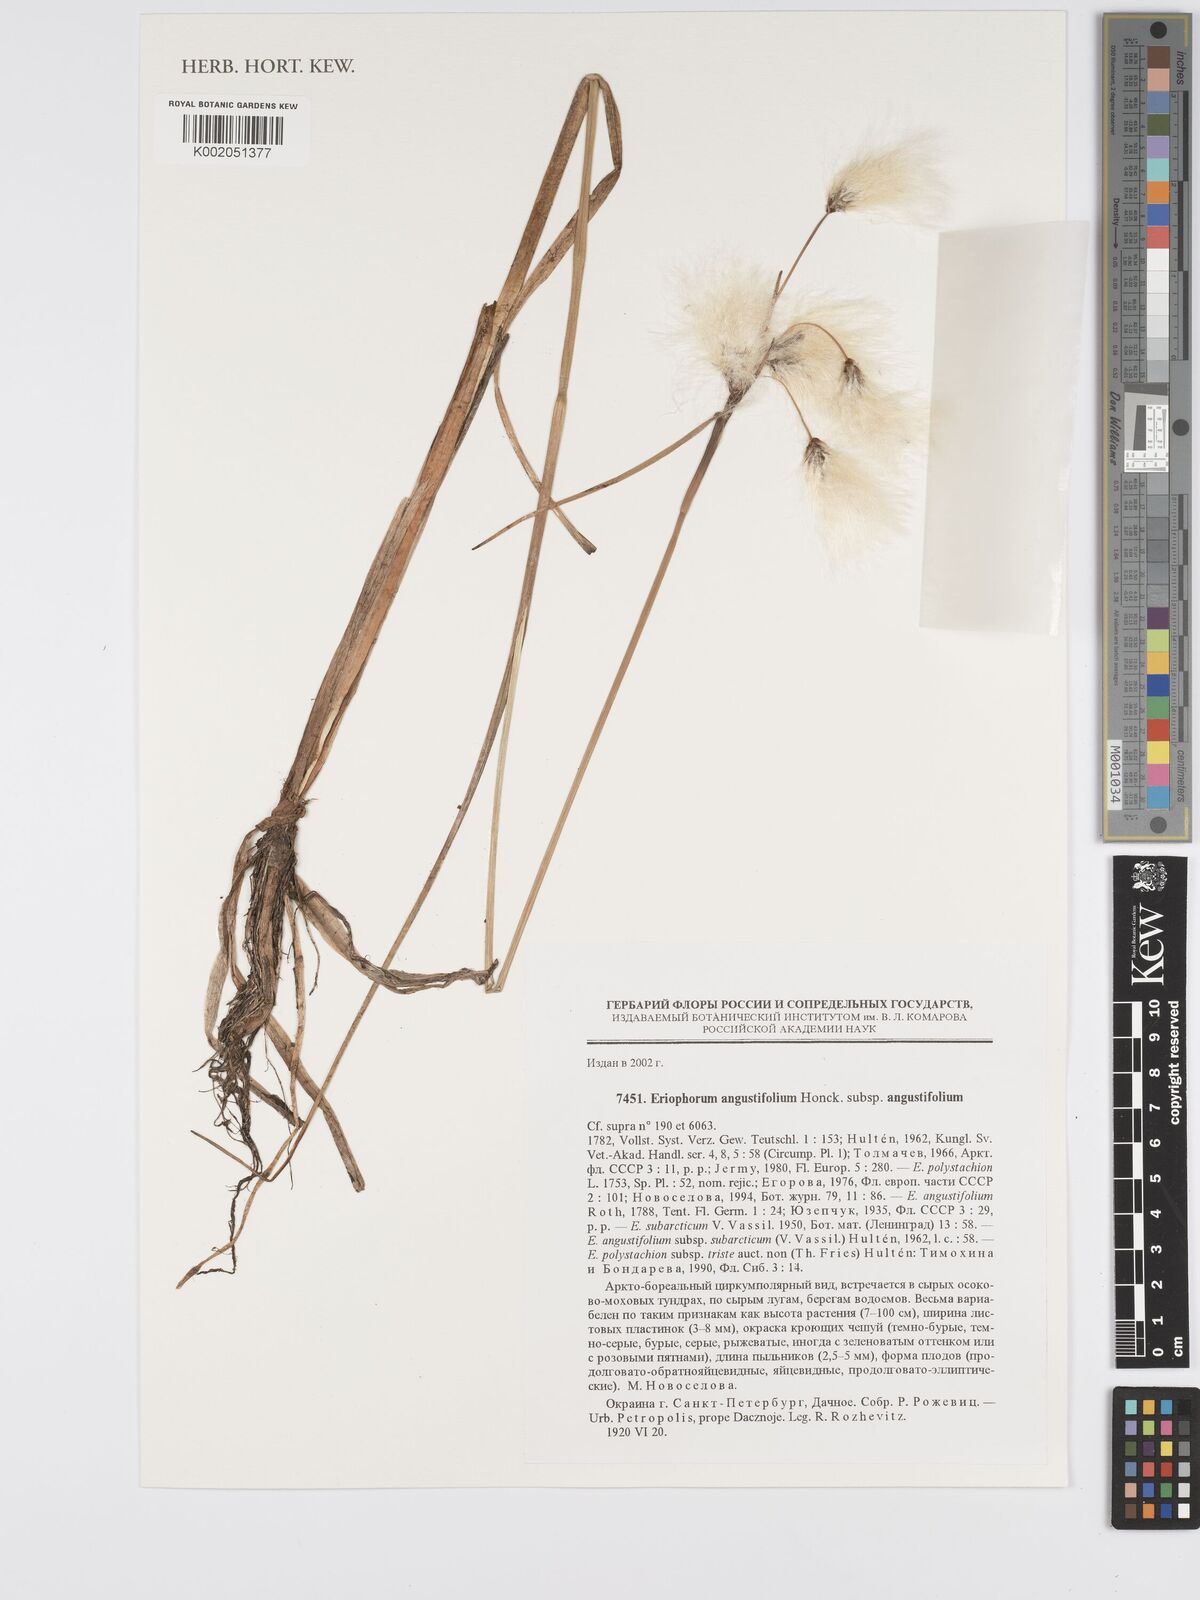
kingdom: Plantae
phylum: Tracheophyta
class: Liliopsida
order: Poales
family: Cyperaceae
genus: Eriophorum
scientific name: Eriophorum angustifolium
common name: Common cottongrass
